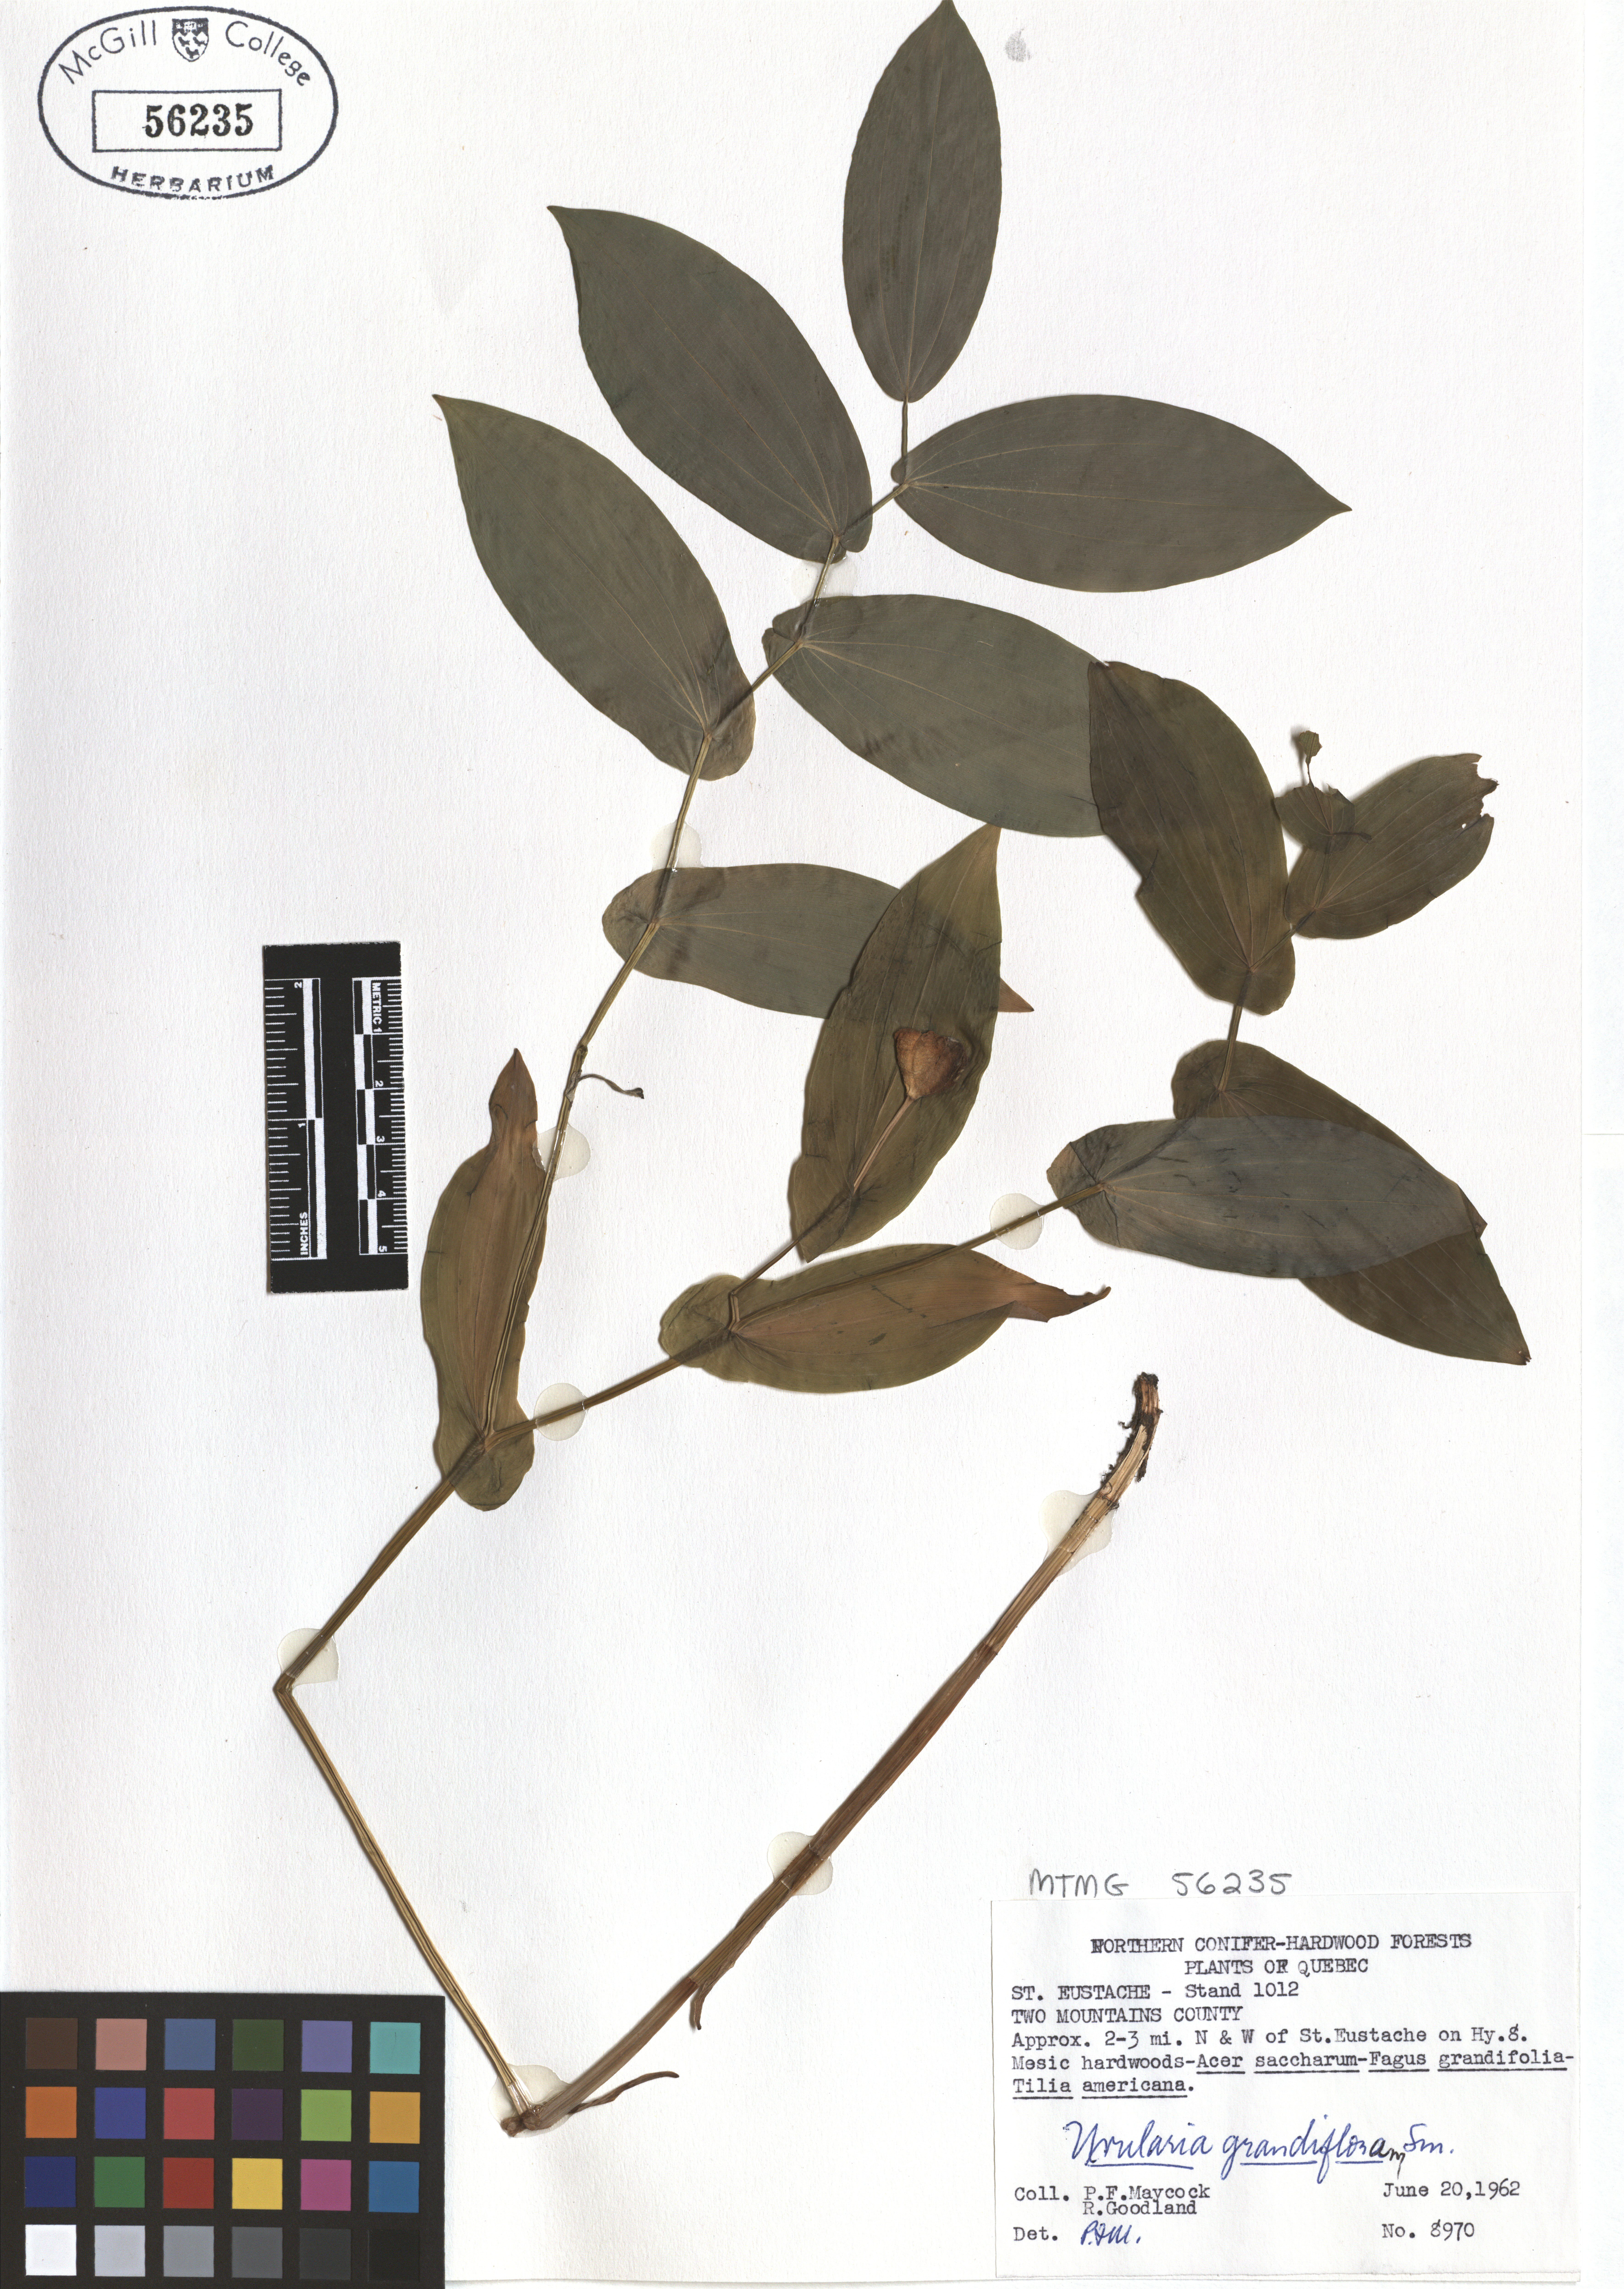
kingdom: Plantae
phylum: Tracheophyta
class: Liliopsida
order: Liliales
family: Colchicaceae
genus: Uvularia
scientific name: Uvularia grandiflora
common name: Bellwort
